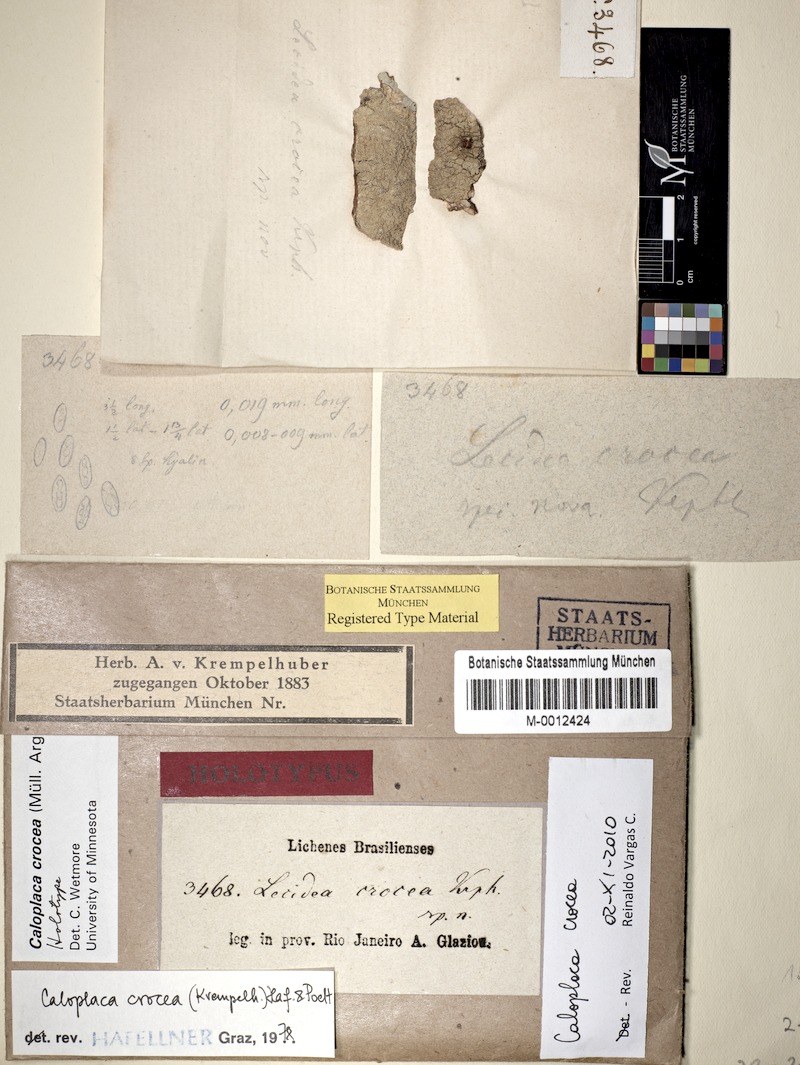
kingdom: Fungi
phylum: Ascomycota
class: Lecanoromycetes
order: Teloschistales
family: Teloschistaceae
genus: Caloplaca
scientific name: Caloplaca crocea
